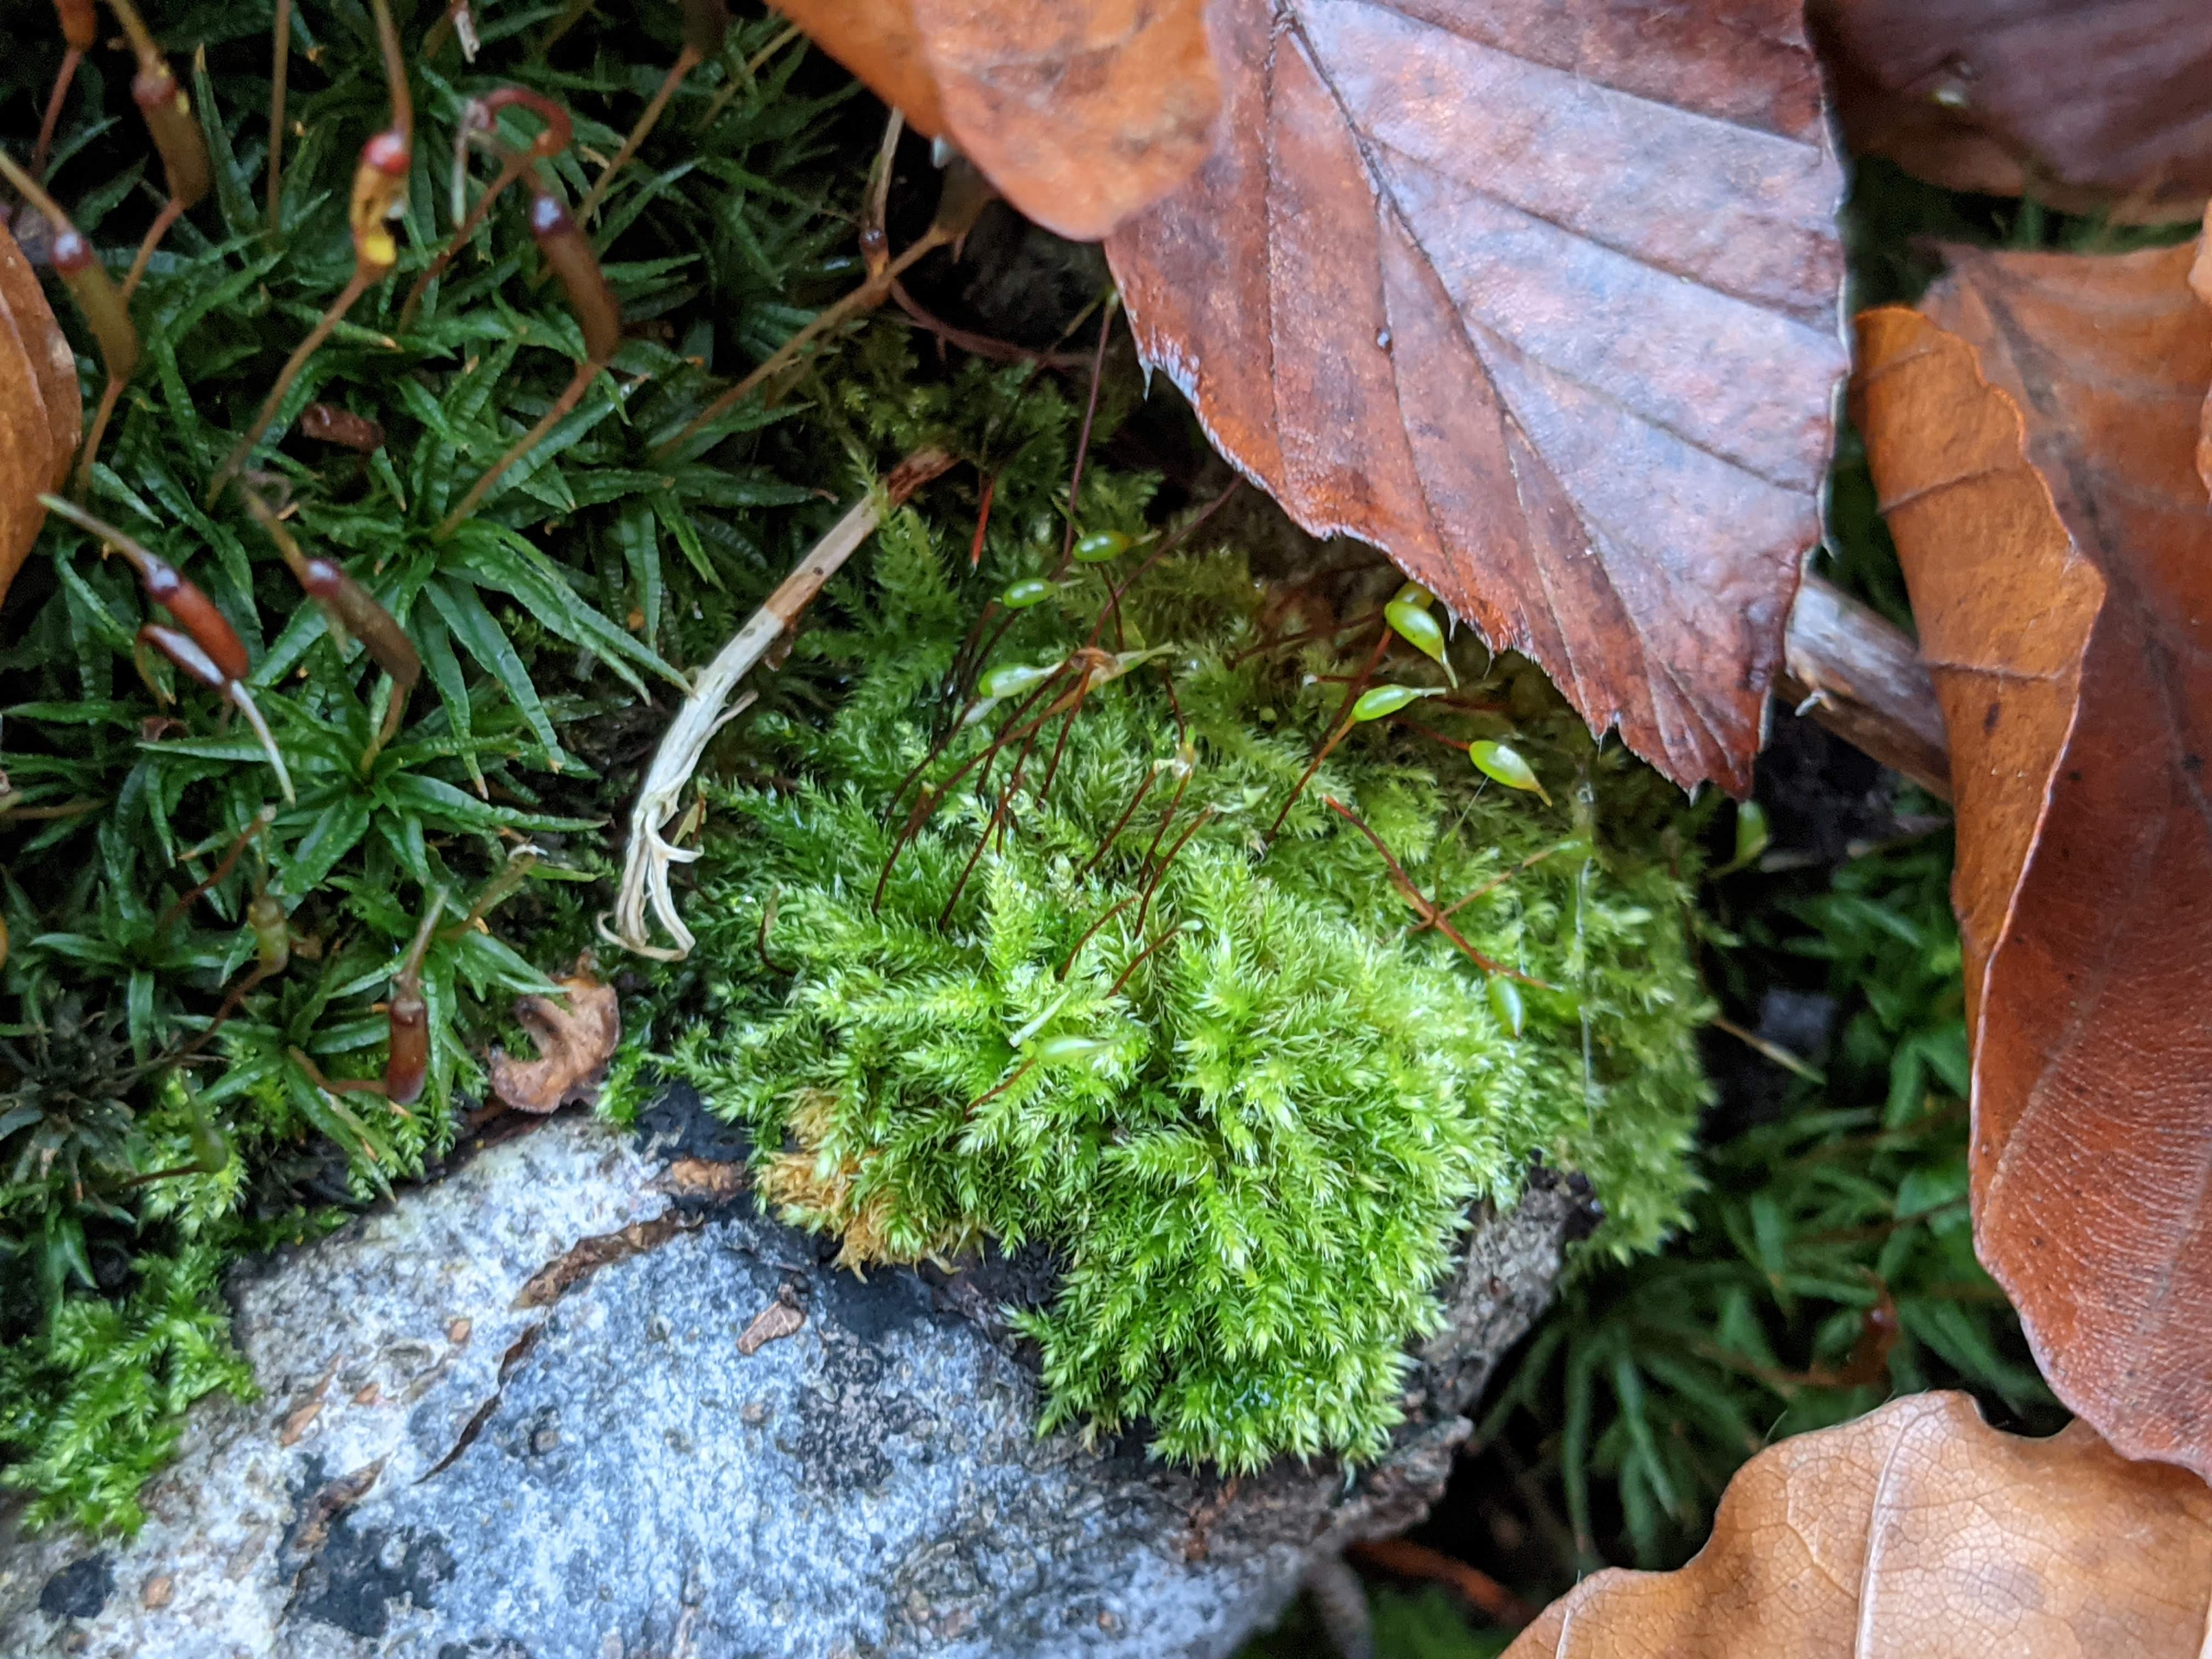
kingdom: Plantae
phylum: Bryophyta
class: Bryopsida
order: Hypnales
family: Brachytheciaceae
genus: Brachytheciastrum
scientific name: Brachytheciastrum velutinum
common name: Fløjls-kortkapsel
